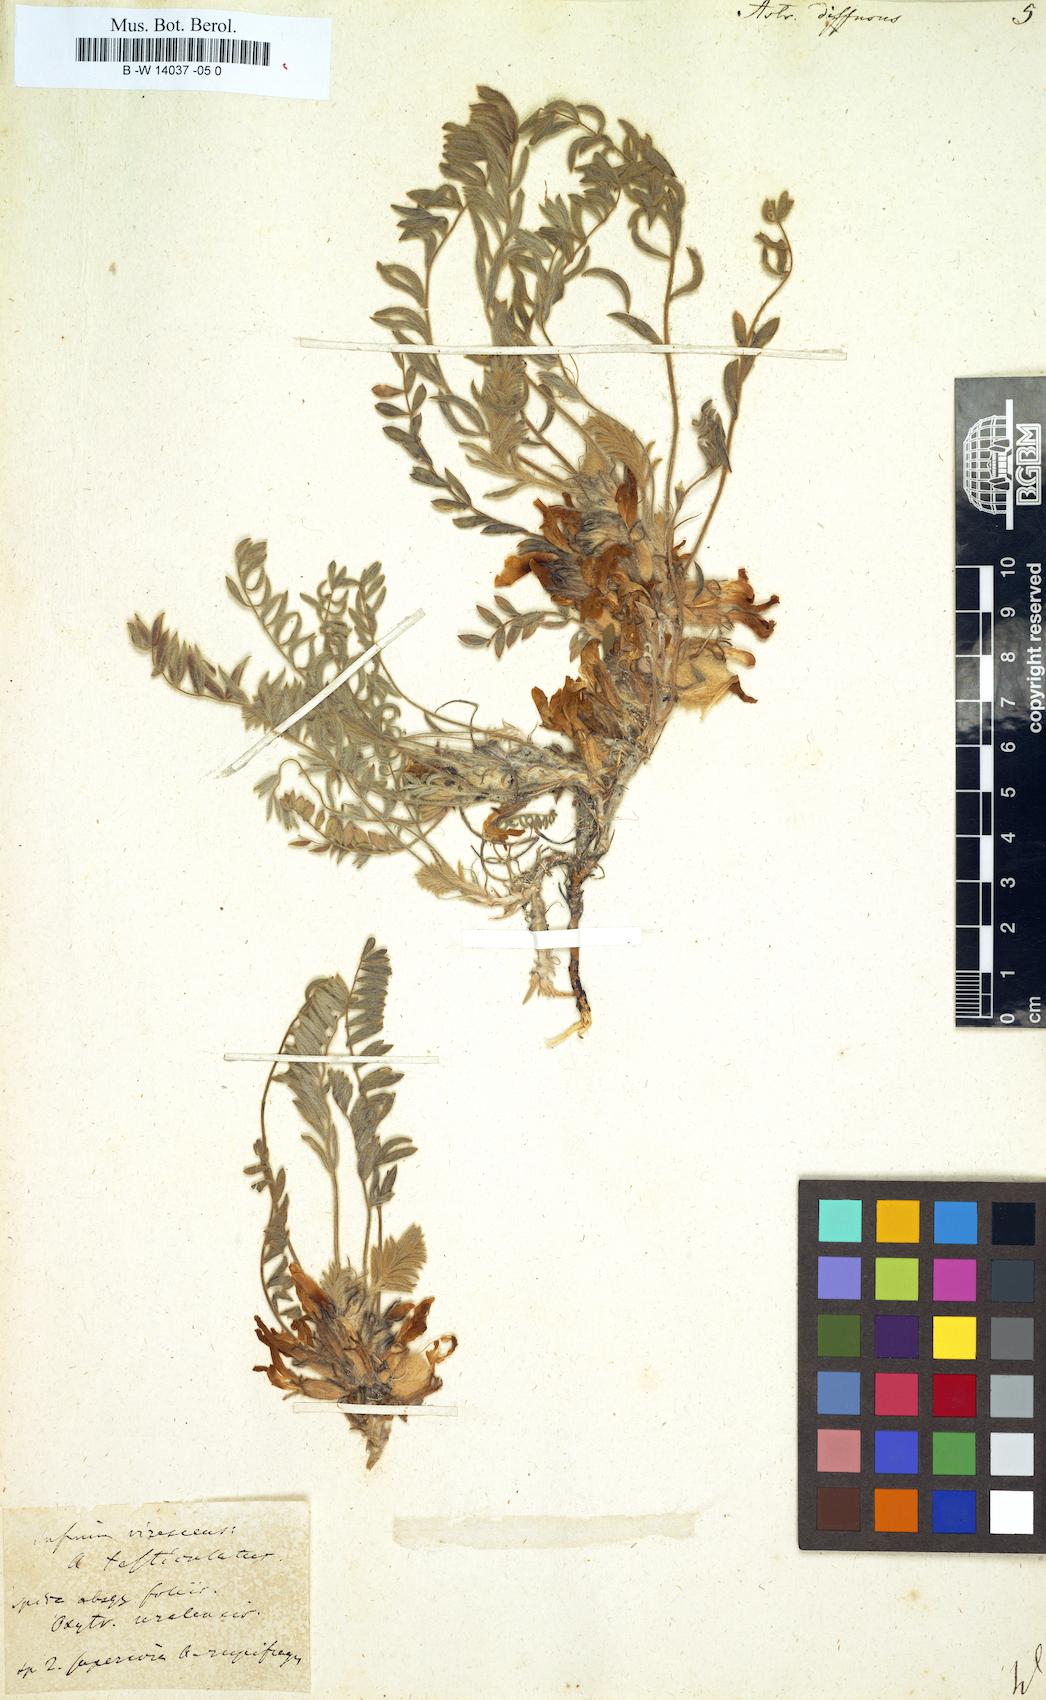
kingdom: Plantae
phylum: Tracheophyta
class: Magnoliopsida
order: Fabales
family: Fabaceae
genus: Astragalus
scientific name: Astragalus dolichophyllus
